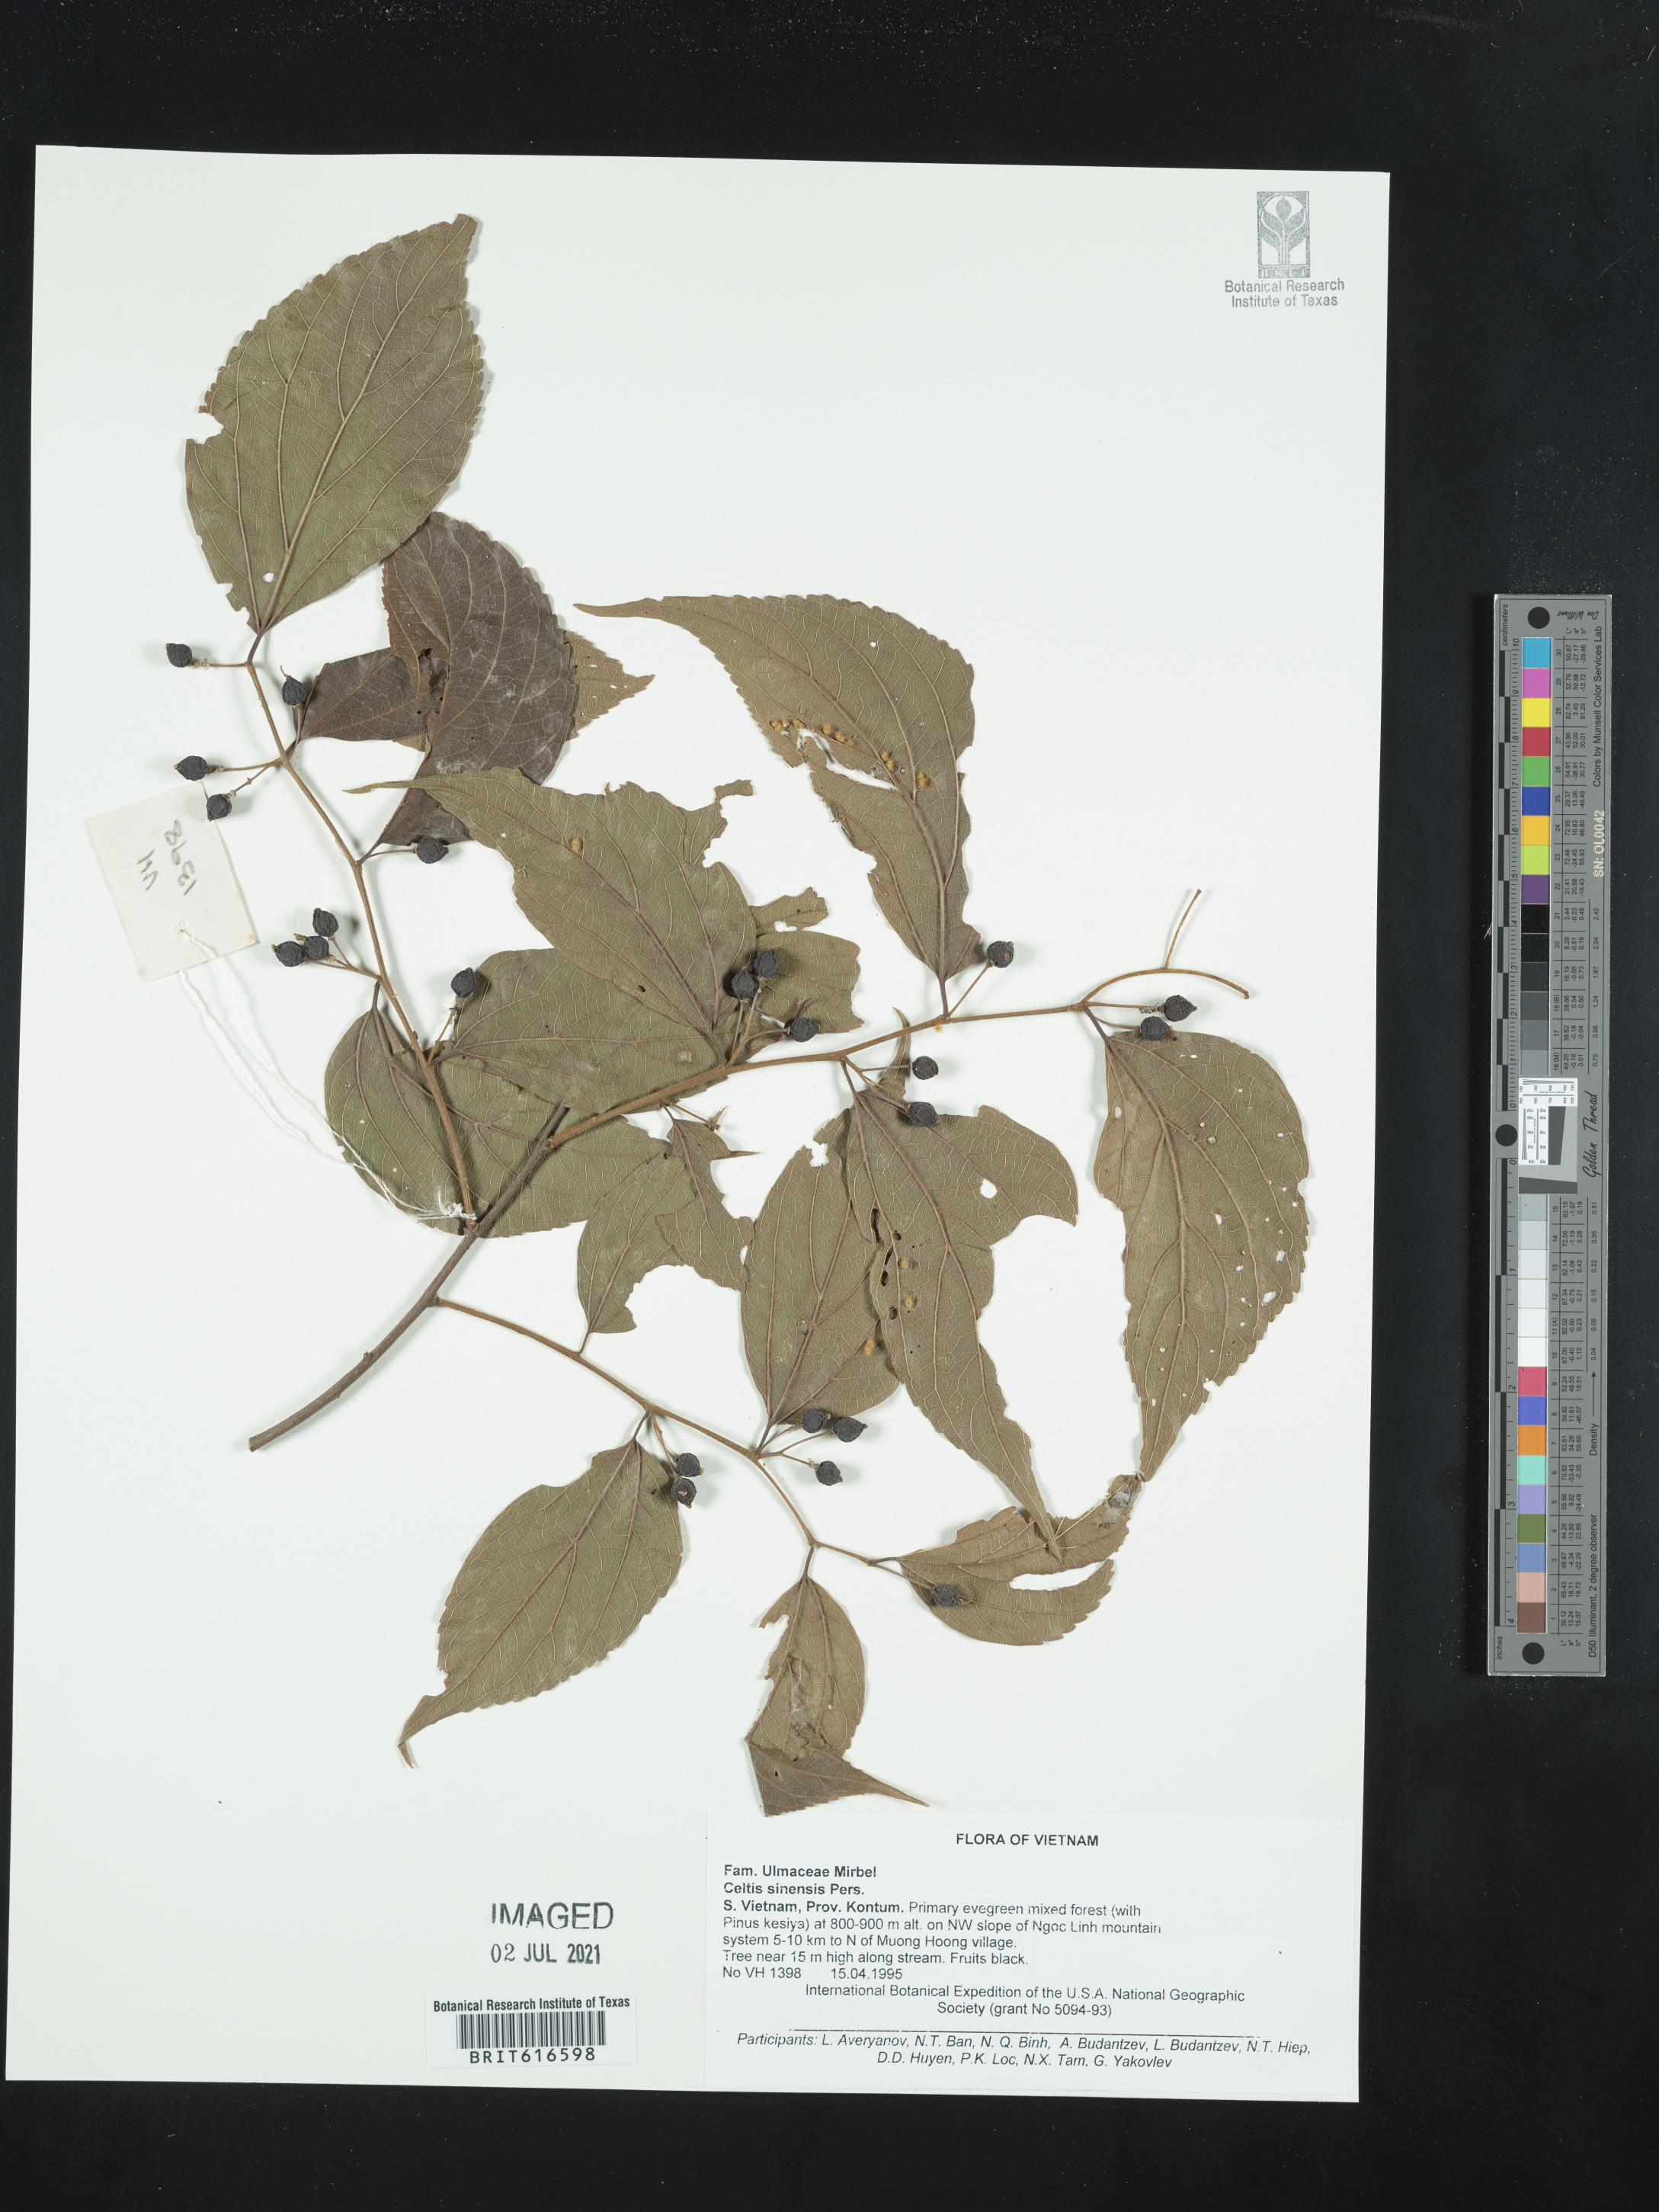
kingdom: Plantae
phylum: Tracheophyta
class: Magnoliopsida
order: Rosales
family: Cannabaceae
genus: Celtis
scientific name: Celtis sinensis
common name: Chinese hackberry
